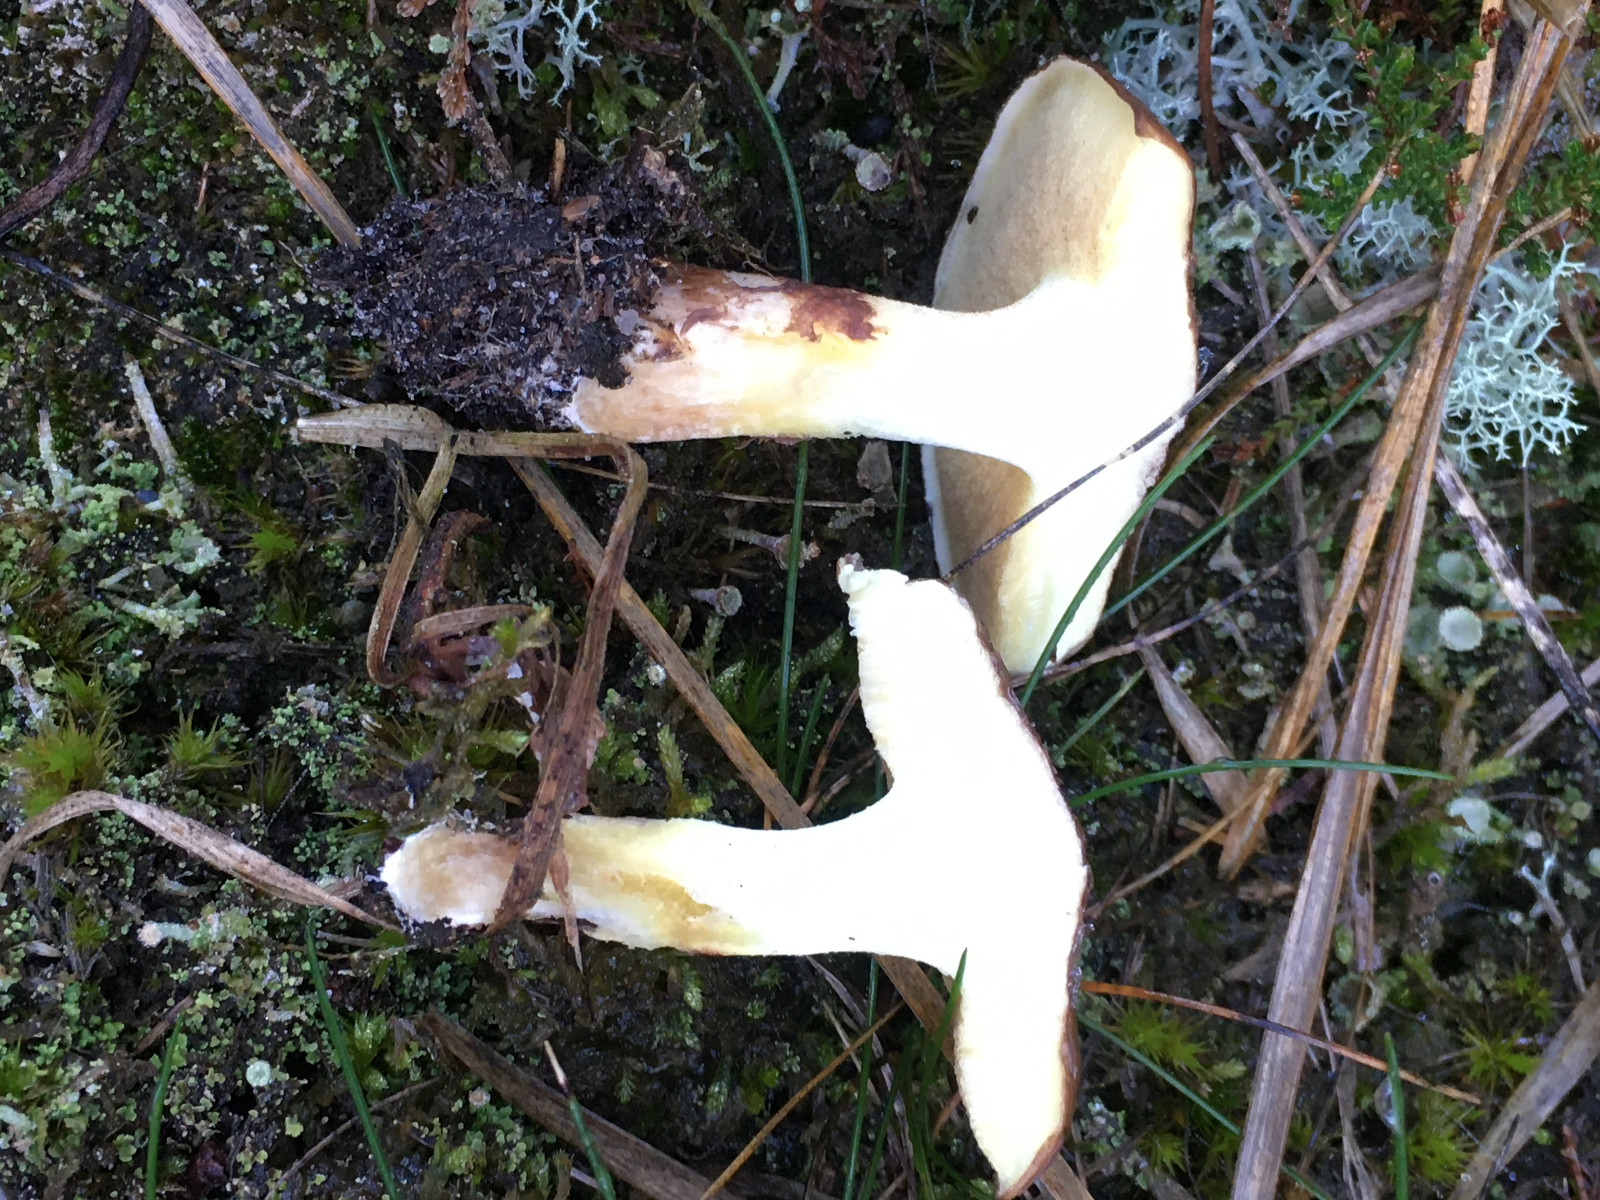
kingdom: Fungi
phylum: Basidiomycota
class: Agaricomycetes
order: Boletales
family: Suillaceae
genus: Suillus
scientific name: Suillus luteus
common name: brungul slimrørhat
